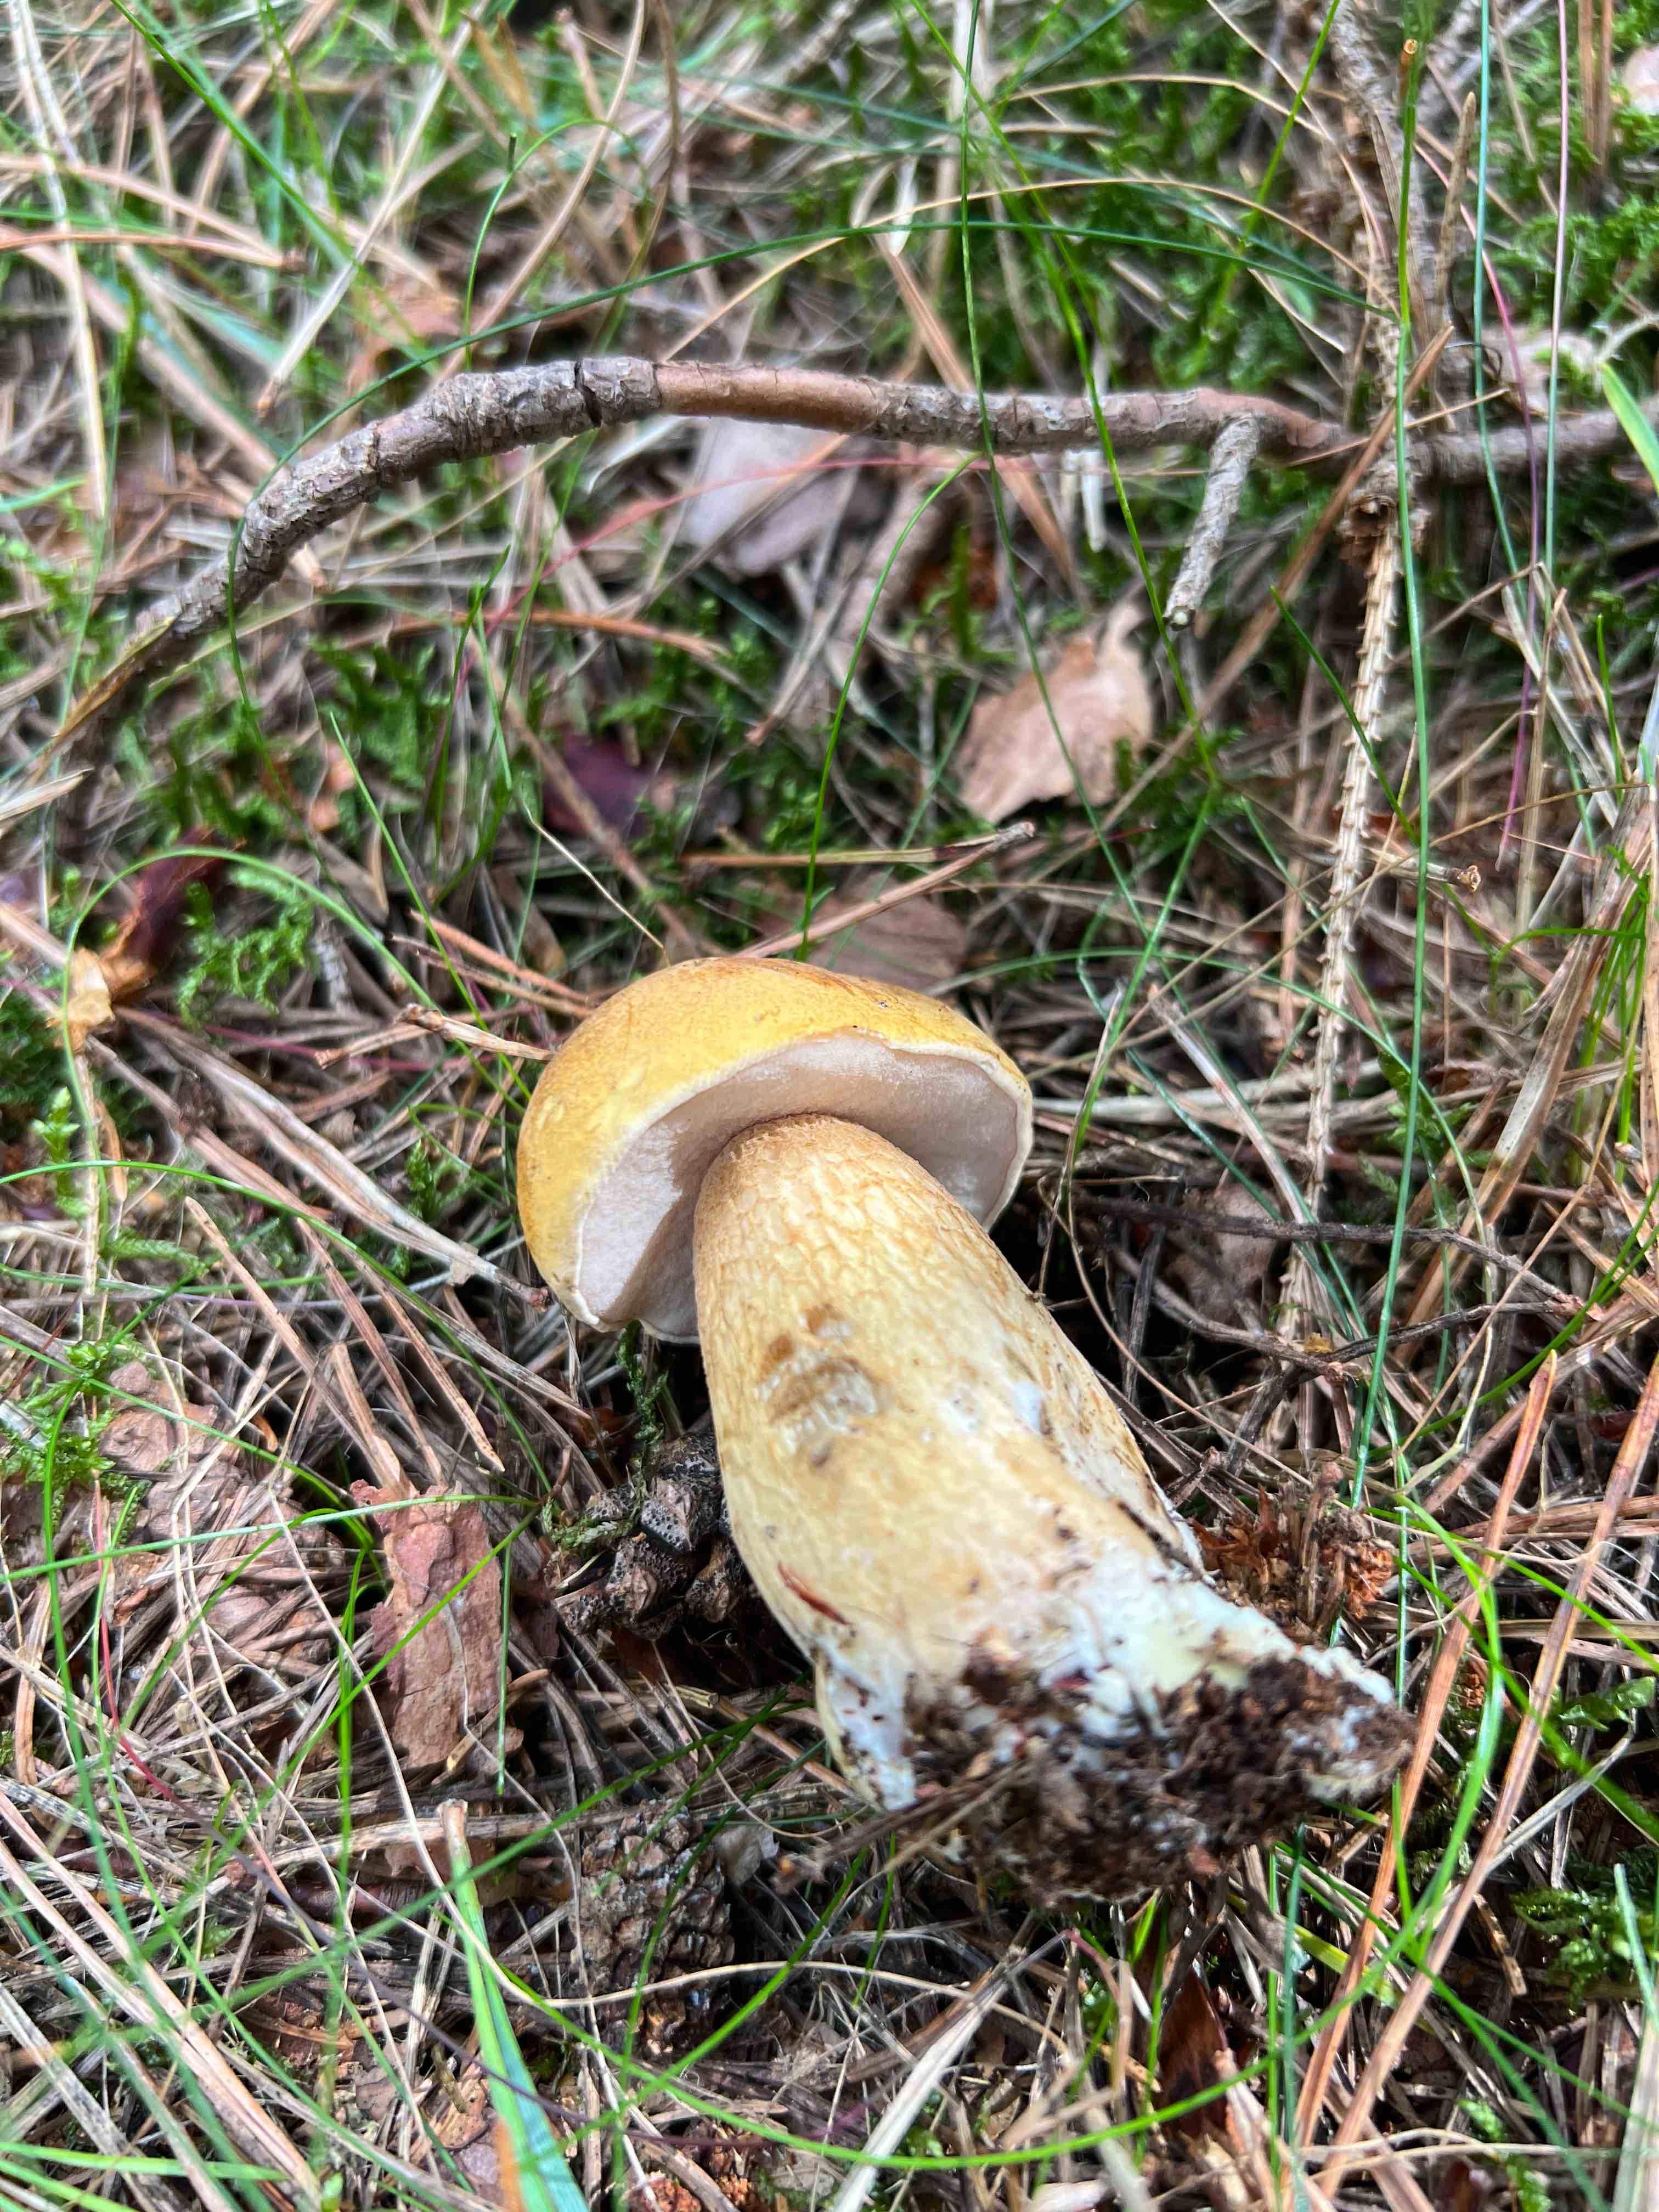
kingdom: Fungi
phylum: Basidiomycota
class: Agaricomycetes
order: Boletales
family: Boletaceae
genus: Tylopilus
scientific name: Tylopilus felleus
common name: galderørhat
